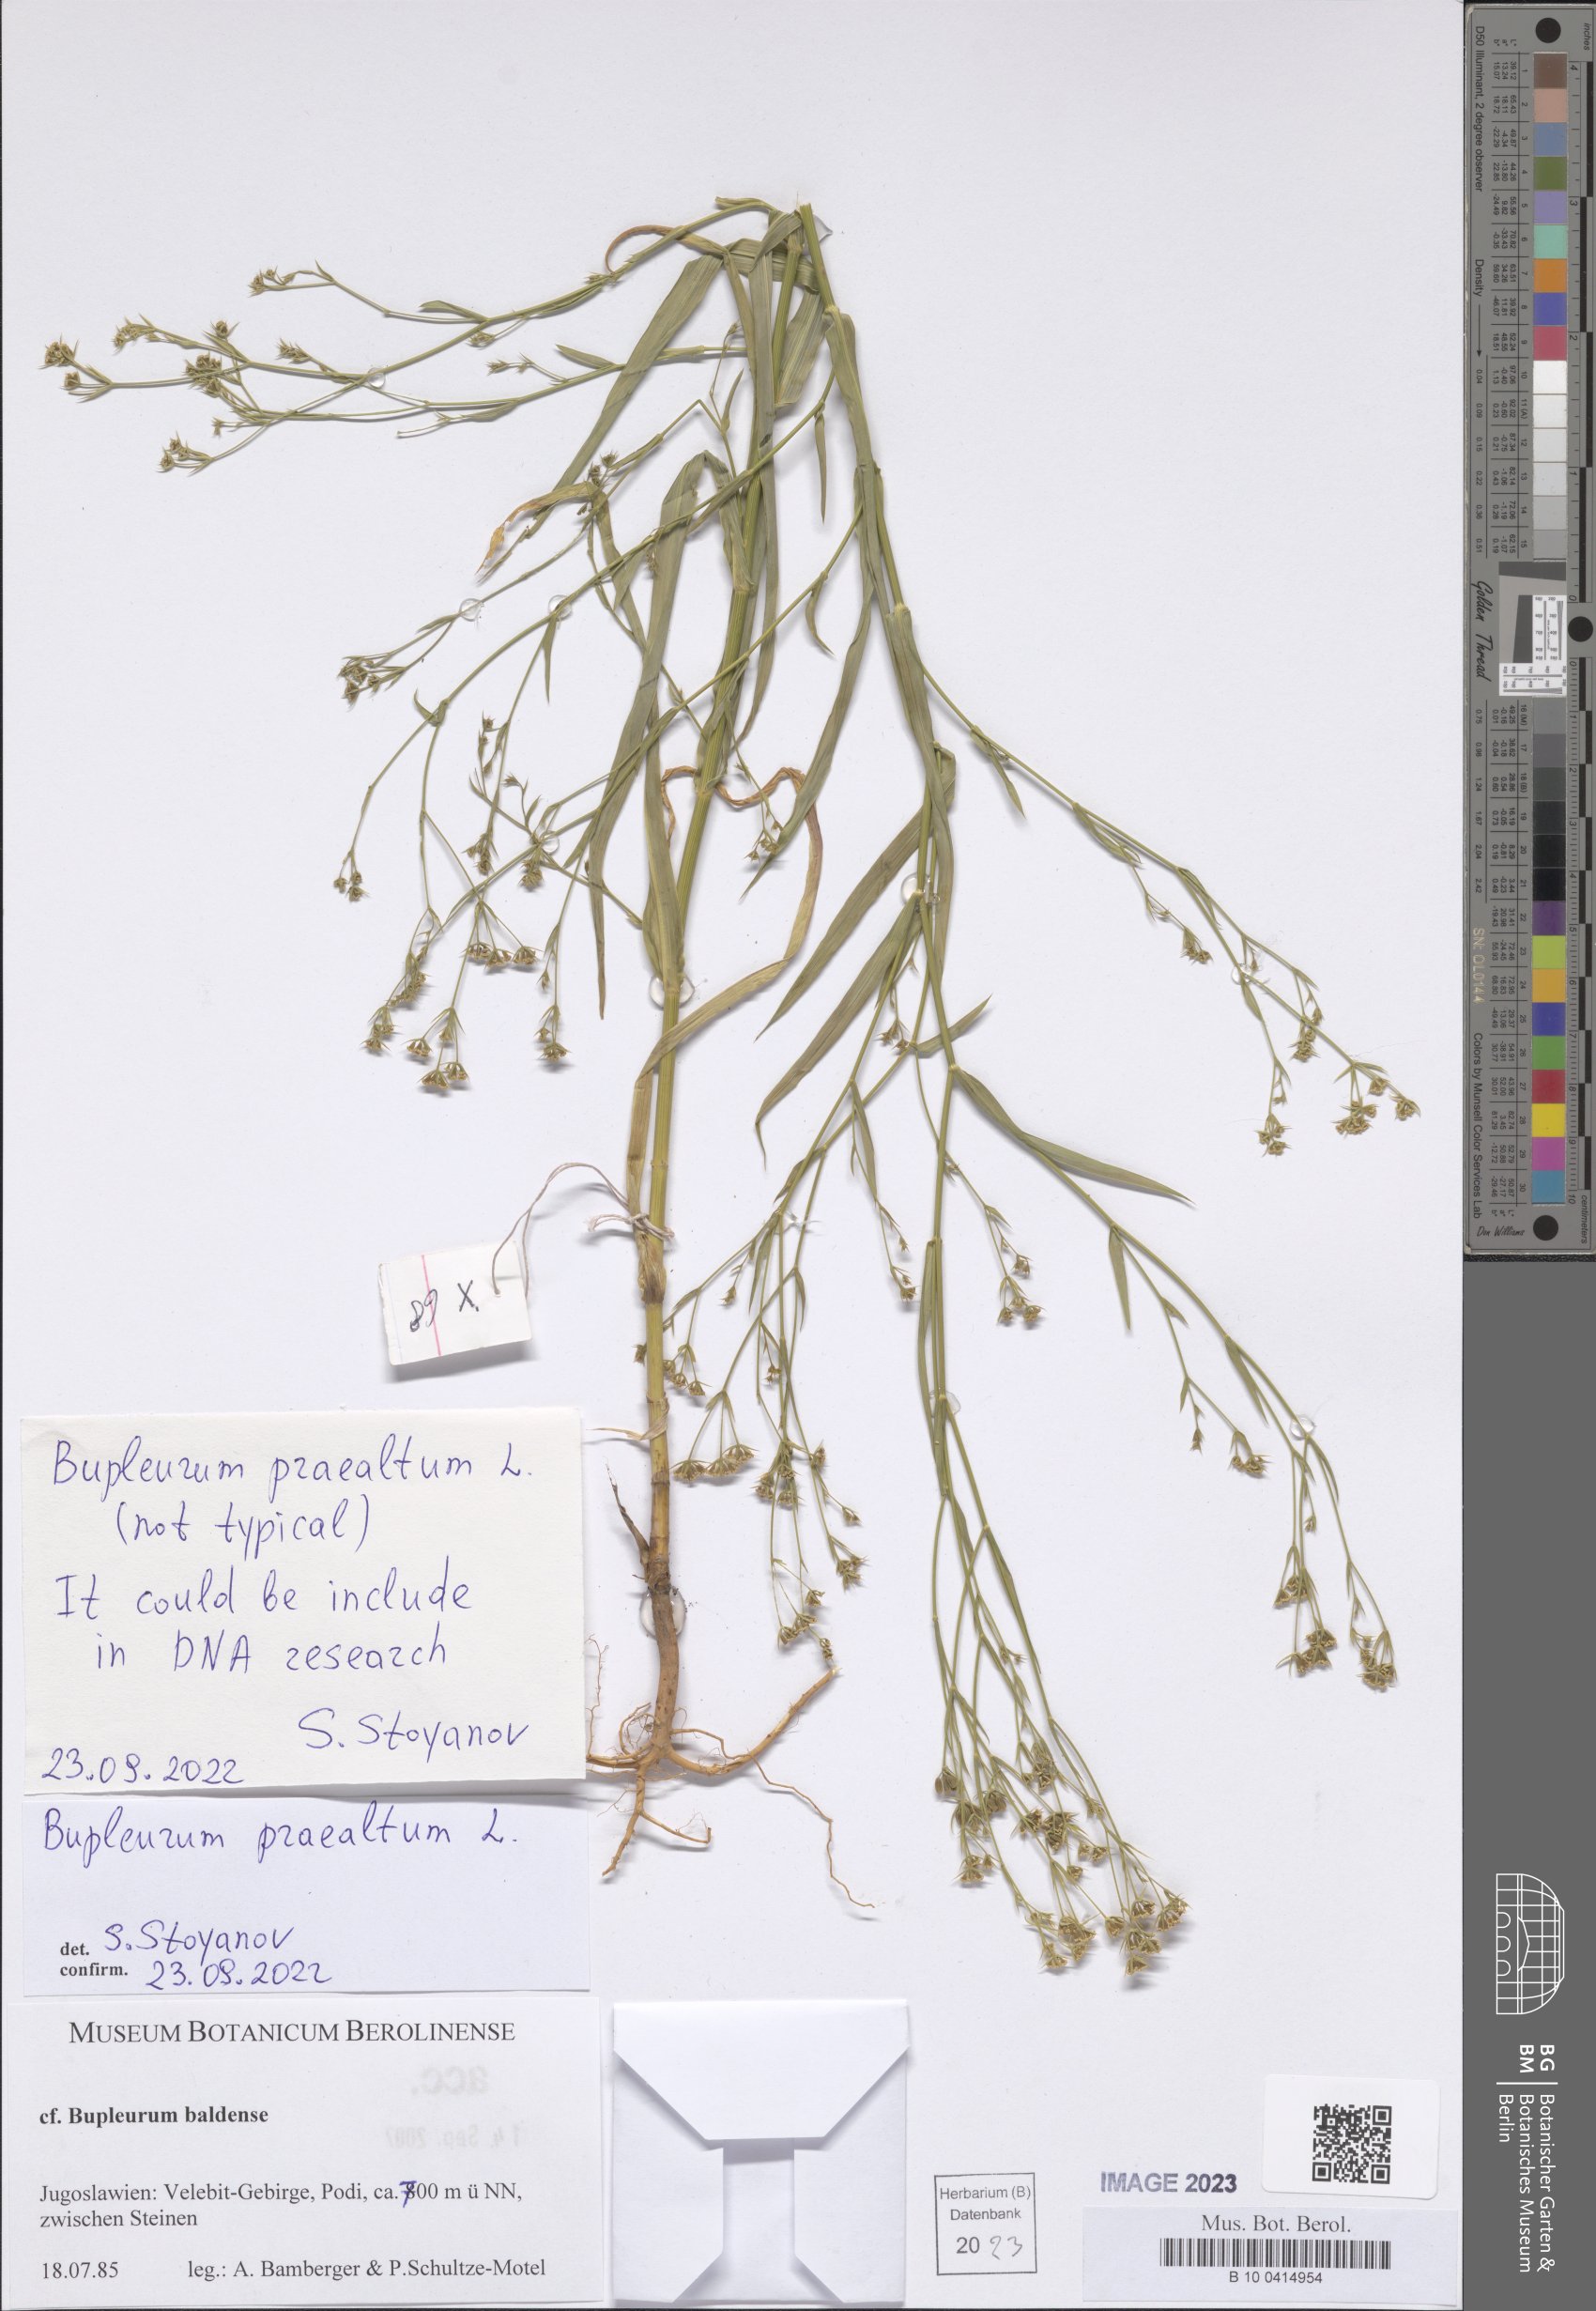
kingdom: Plantae
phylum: Tracheophyta
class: Magnoliopsida
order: Apiales
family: Apiaceae
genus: Bupleurum
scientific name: Bupleurum praealtum
